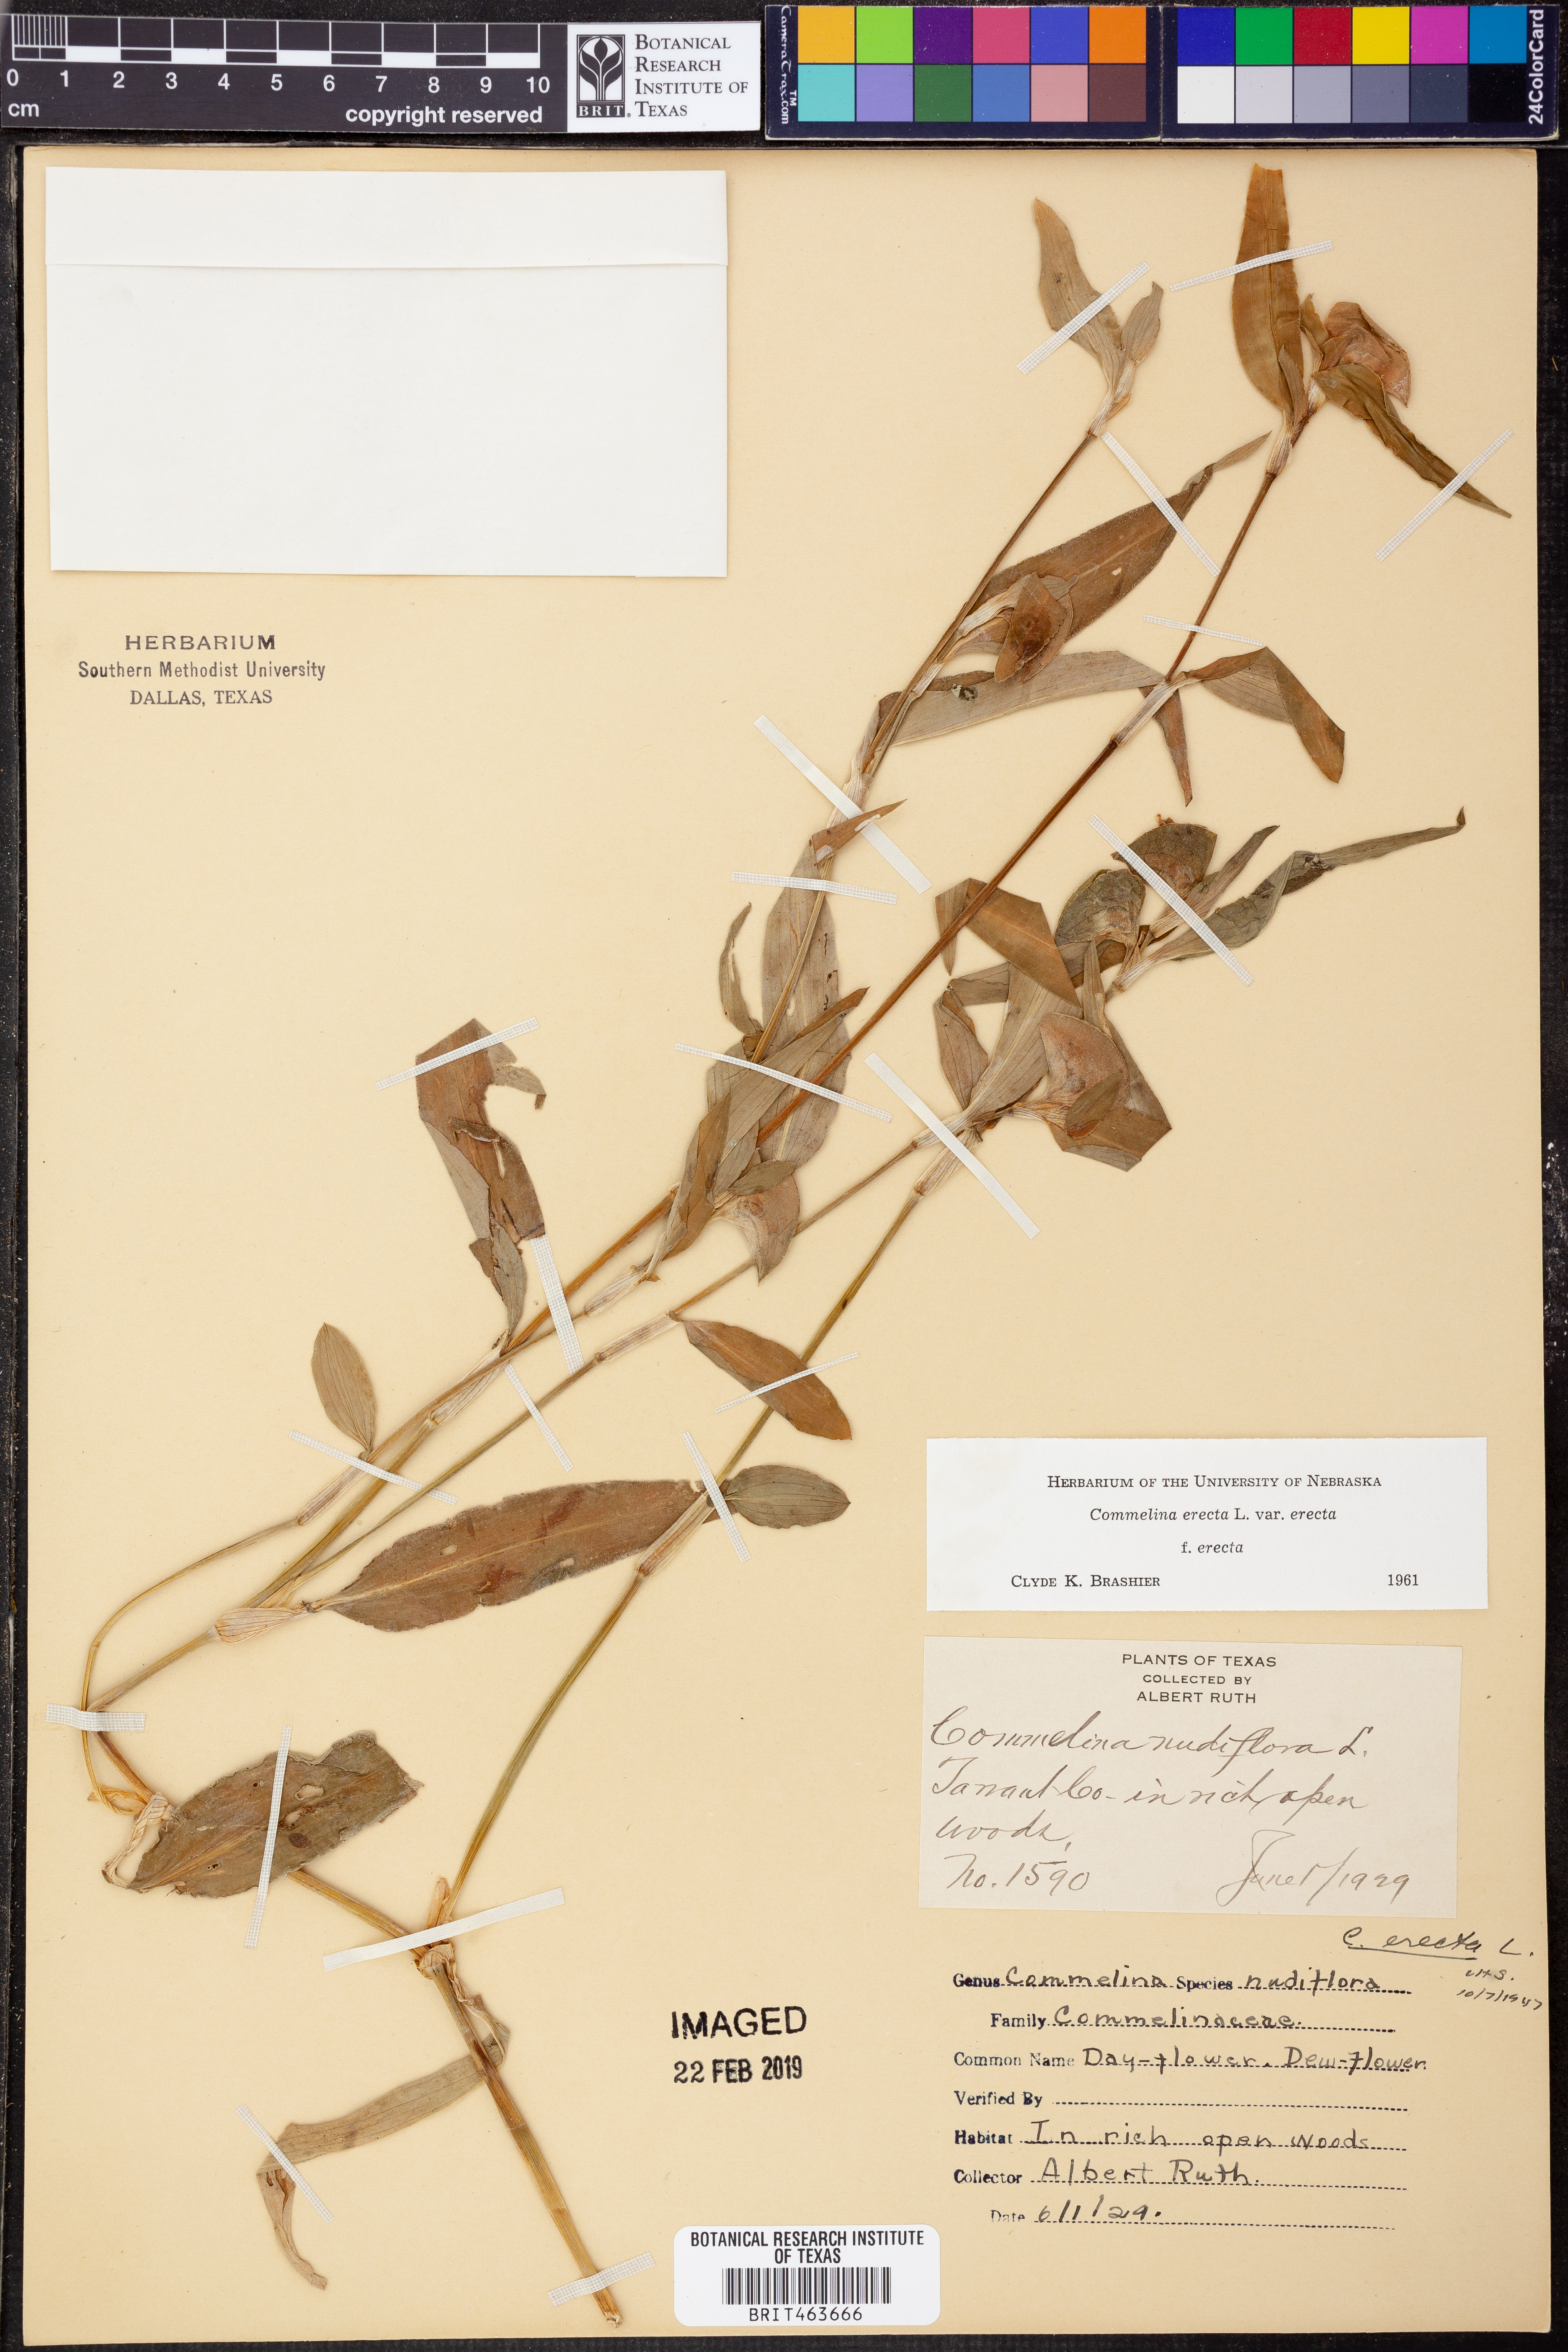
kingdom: Plantae
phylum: Tracheophyta
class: Liliopsida
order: Commelinales
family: Commelinaceae
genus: Commelina
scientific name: Commelina erecta
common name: Blousel blommetjie
